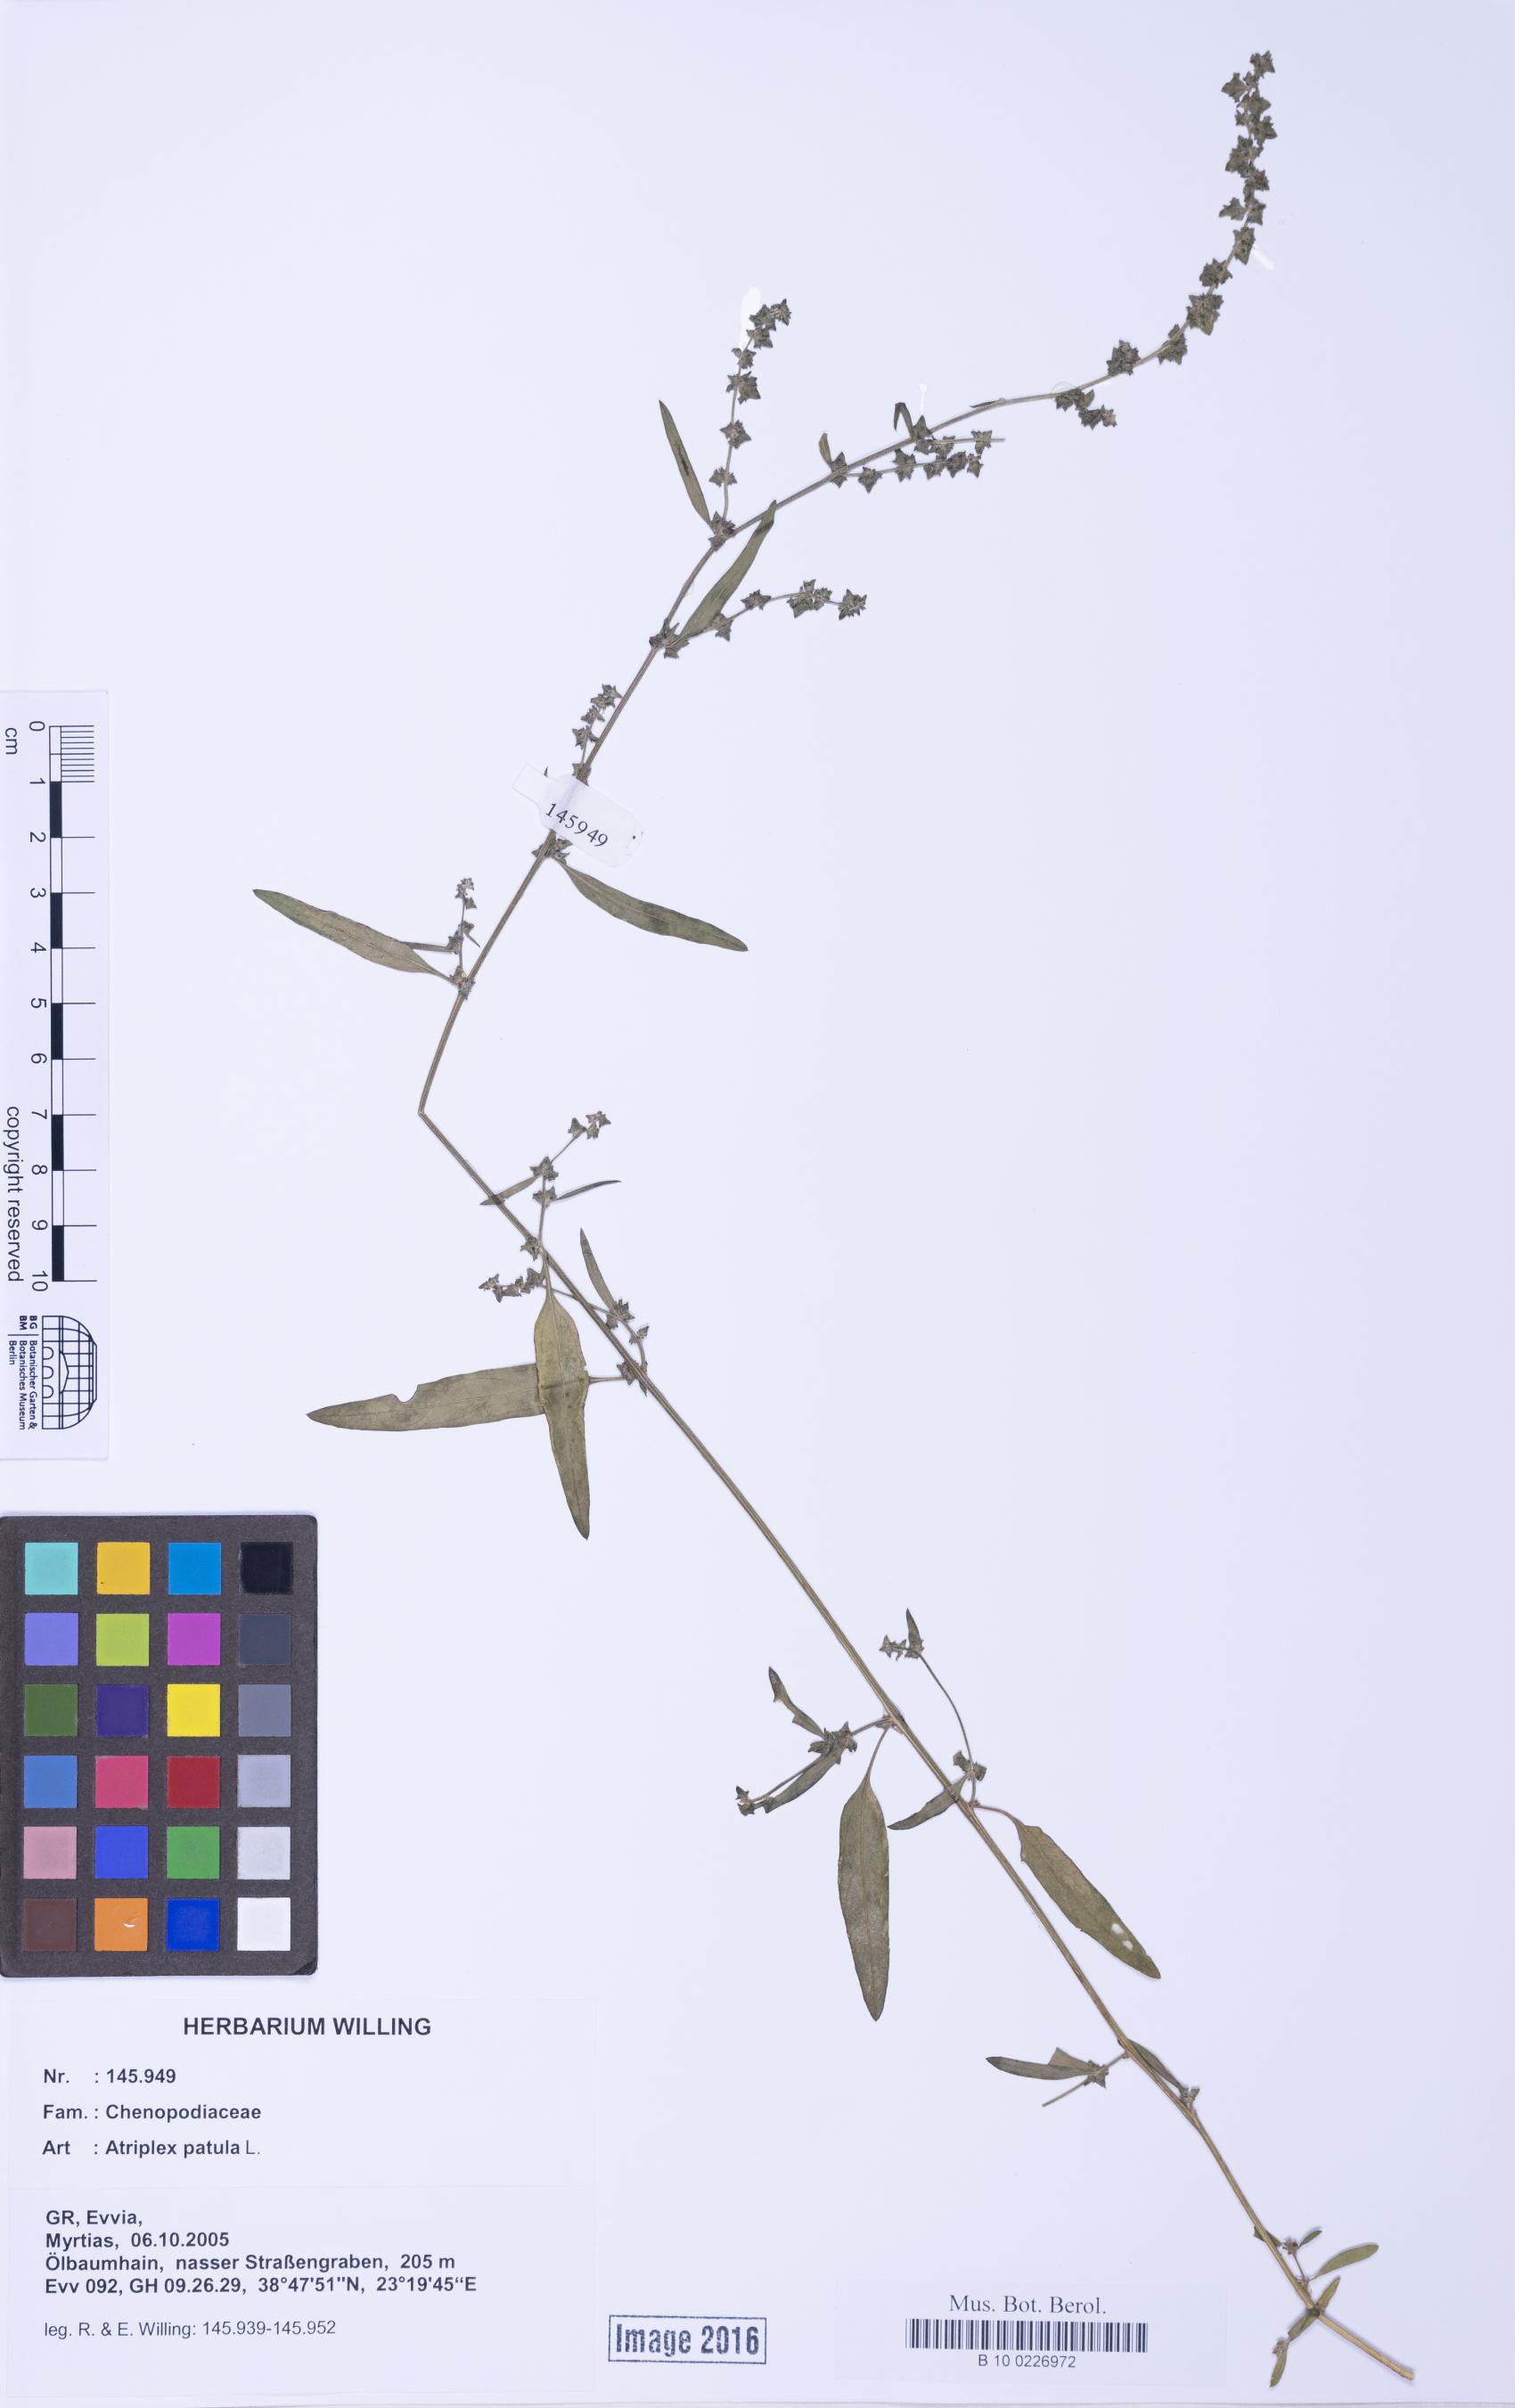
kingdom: Plantae
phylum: Tracheophyta
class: Magnoliopsida
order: Caryophyllales
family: Amaranthaceae
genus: Atriplex
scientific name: Atriplex patula
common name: Common orache
